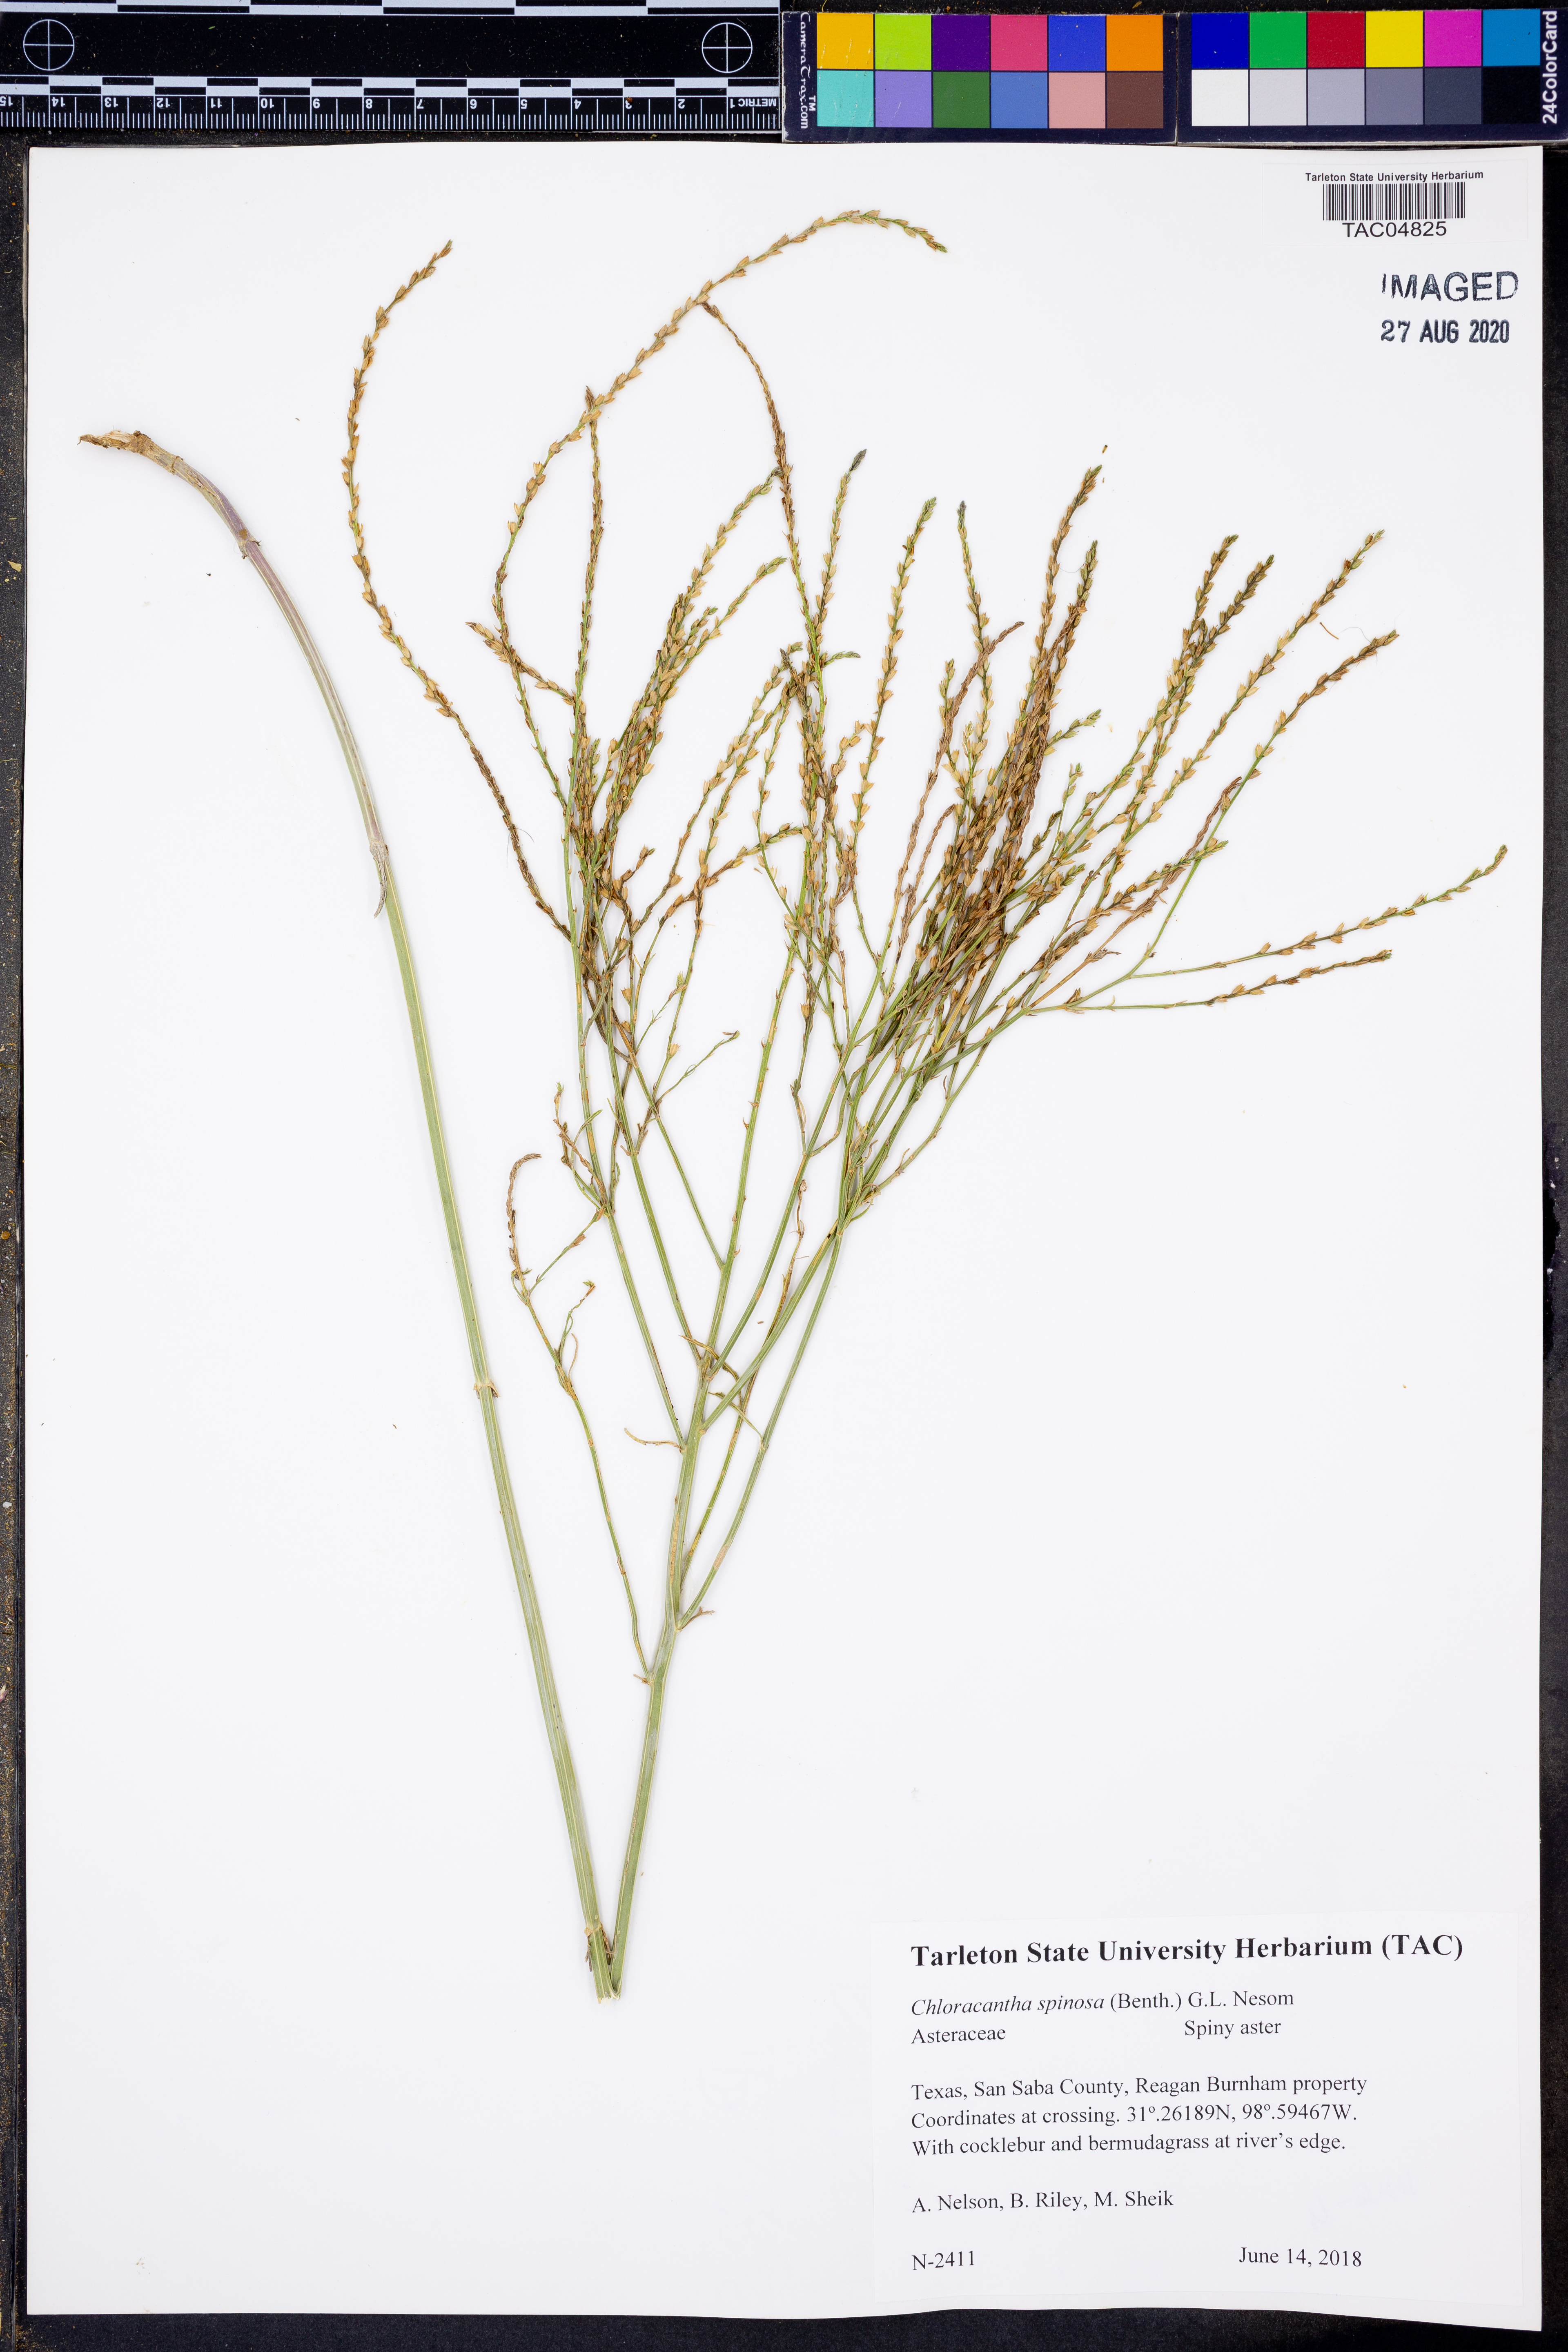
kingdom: Plantae
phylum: Tracheophyta
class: Magnoliopsida
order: Asterales
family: Asteraceae
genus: Chloracantha
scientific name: Chloracantha spinosa
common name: Mexican devilweed
